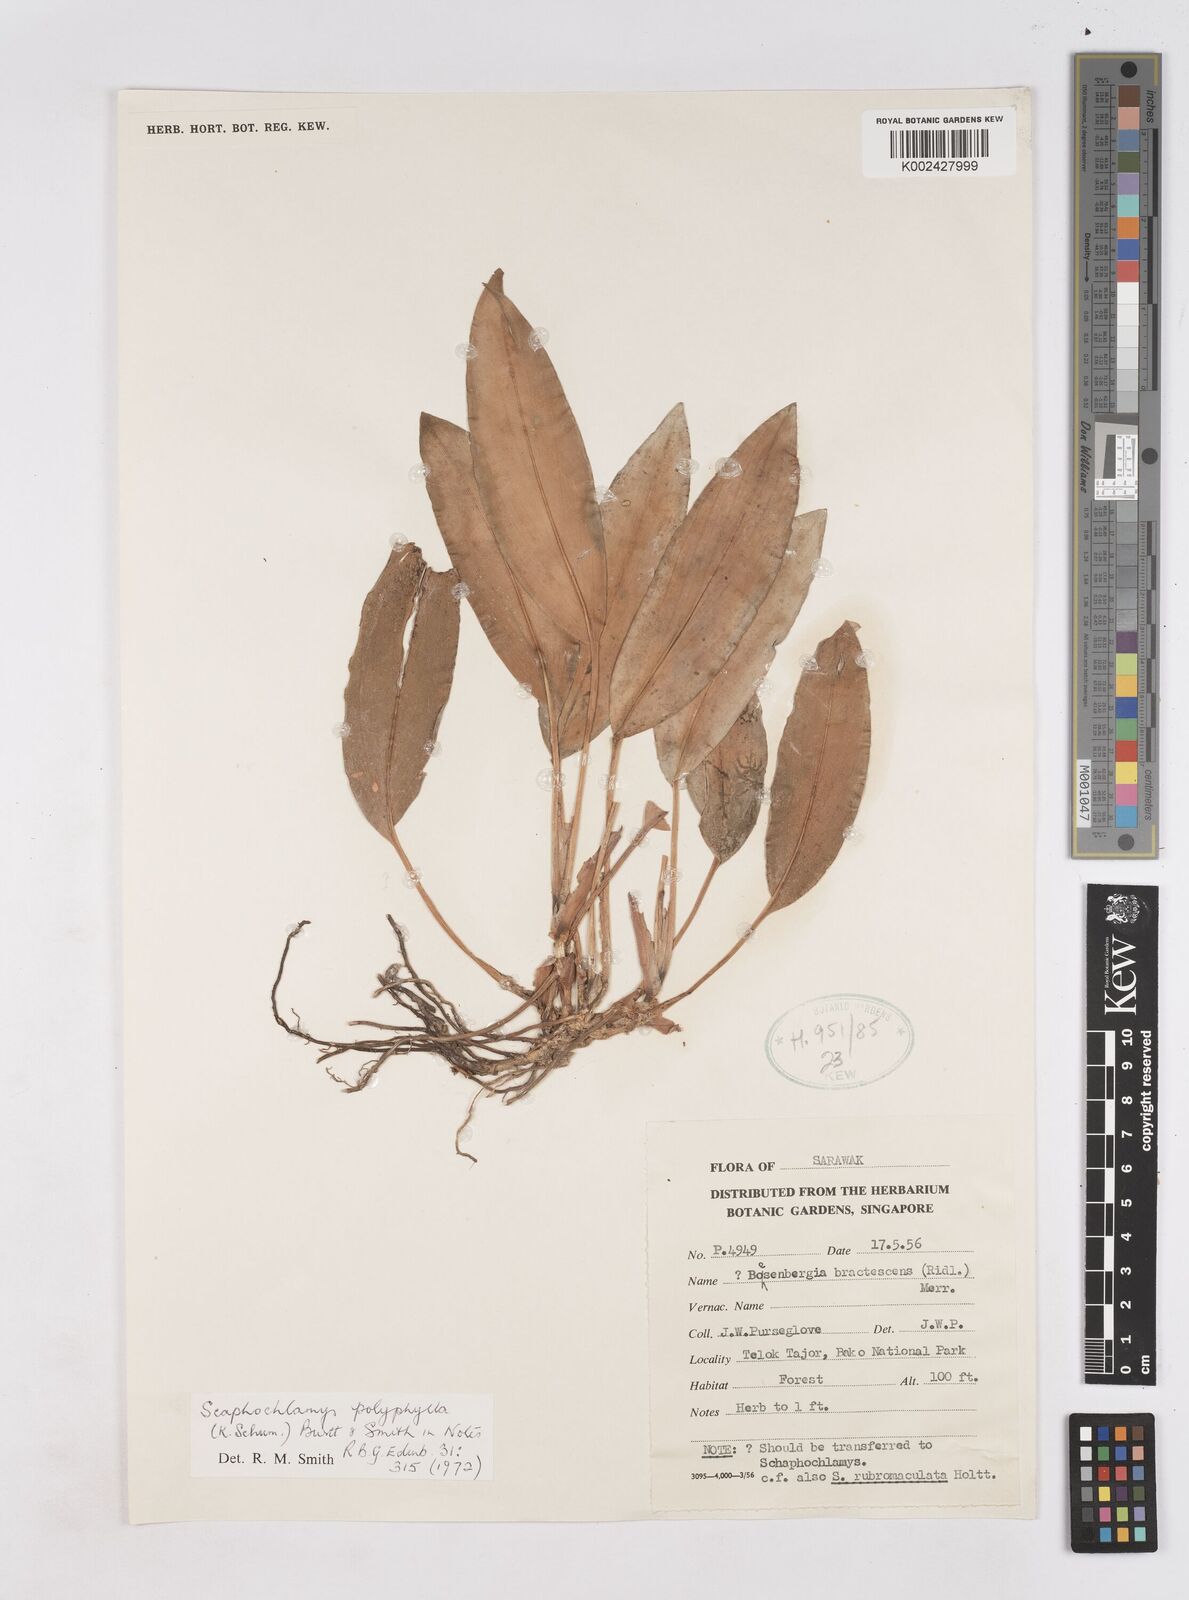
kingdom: Plantae
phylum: Tracheophyta
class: Liliopsida
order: Zingiberales
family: Zingiberaceae
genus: Scaphochlamys
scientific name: Scaphochlamys polyphylla
